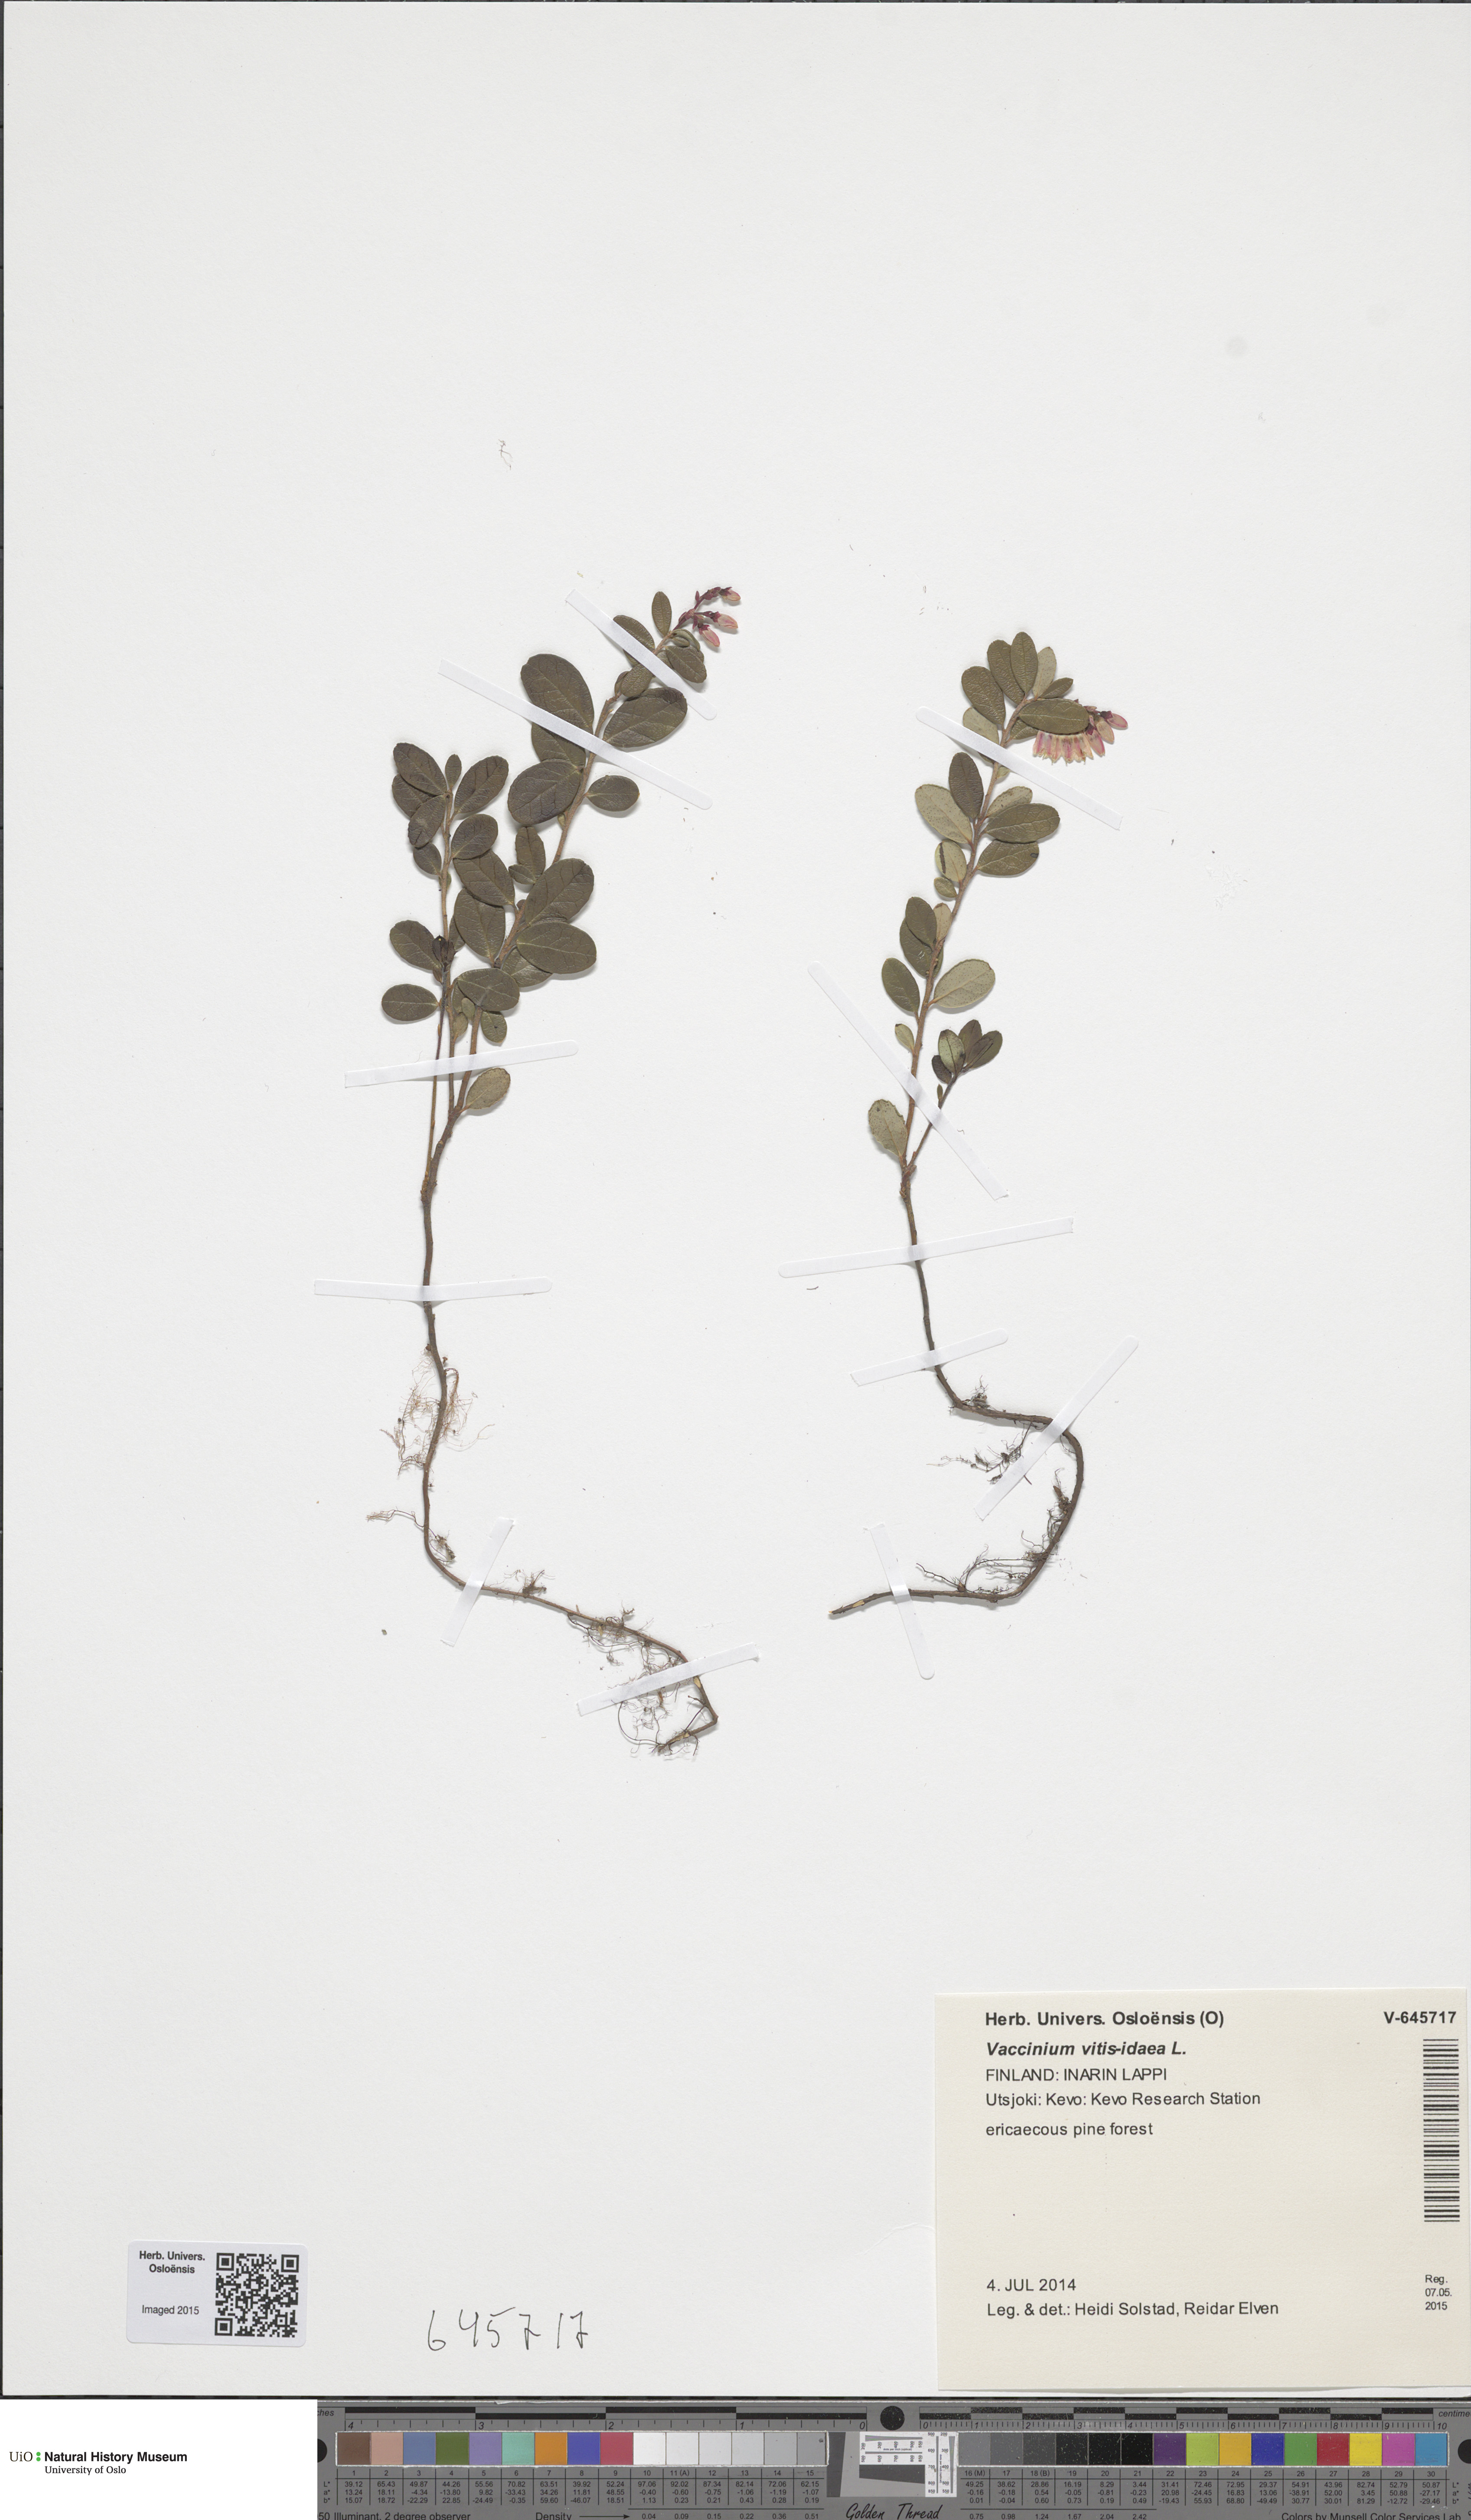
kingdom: Plantae
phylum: Tracheophyta
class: Magnoliopsida
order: Ericales
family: Ericaceae
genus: Vaccinium
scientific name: Vaccinium vitis-idaea
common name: Cowberry
